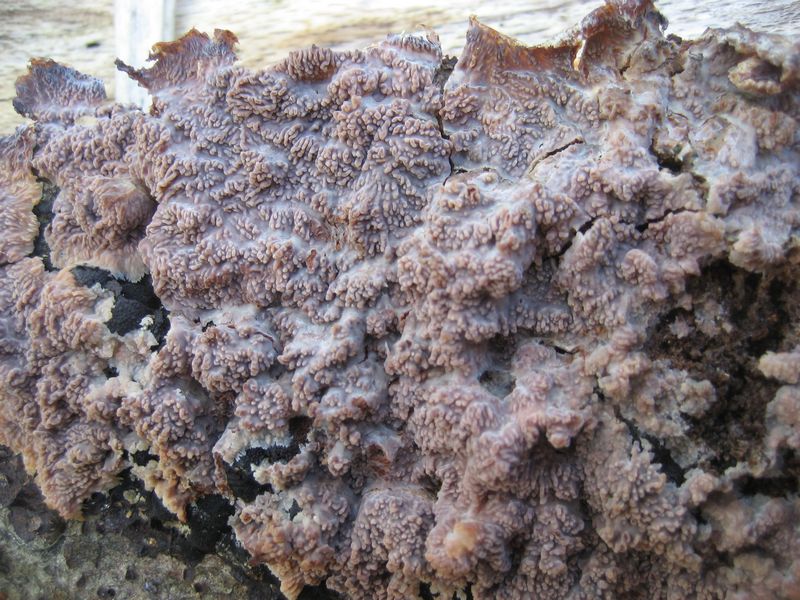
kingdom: Fungi
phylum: Basidiomycota
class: Agaricomycetes
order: Polyporales
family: Meruliaceae
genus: Phlebia
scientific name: Phlebia radiata
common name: stråle-åresvamp
